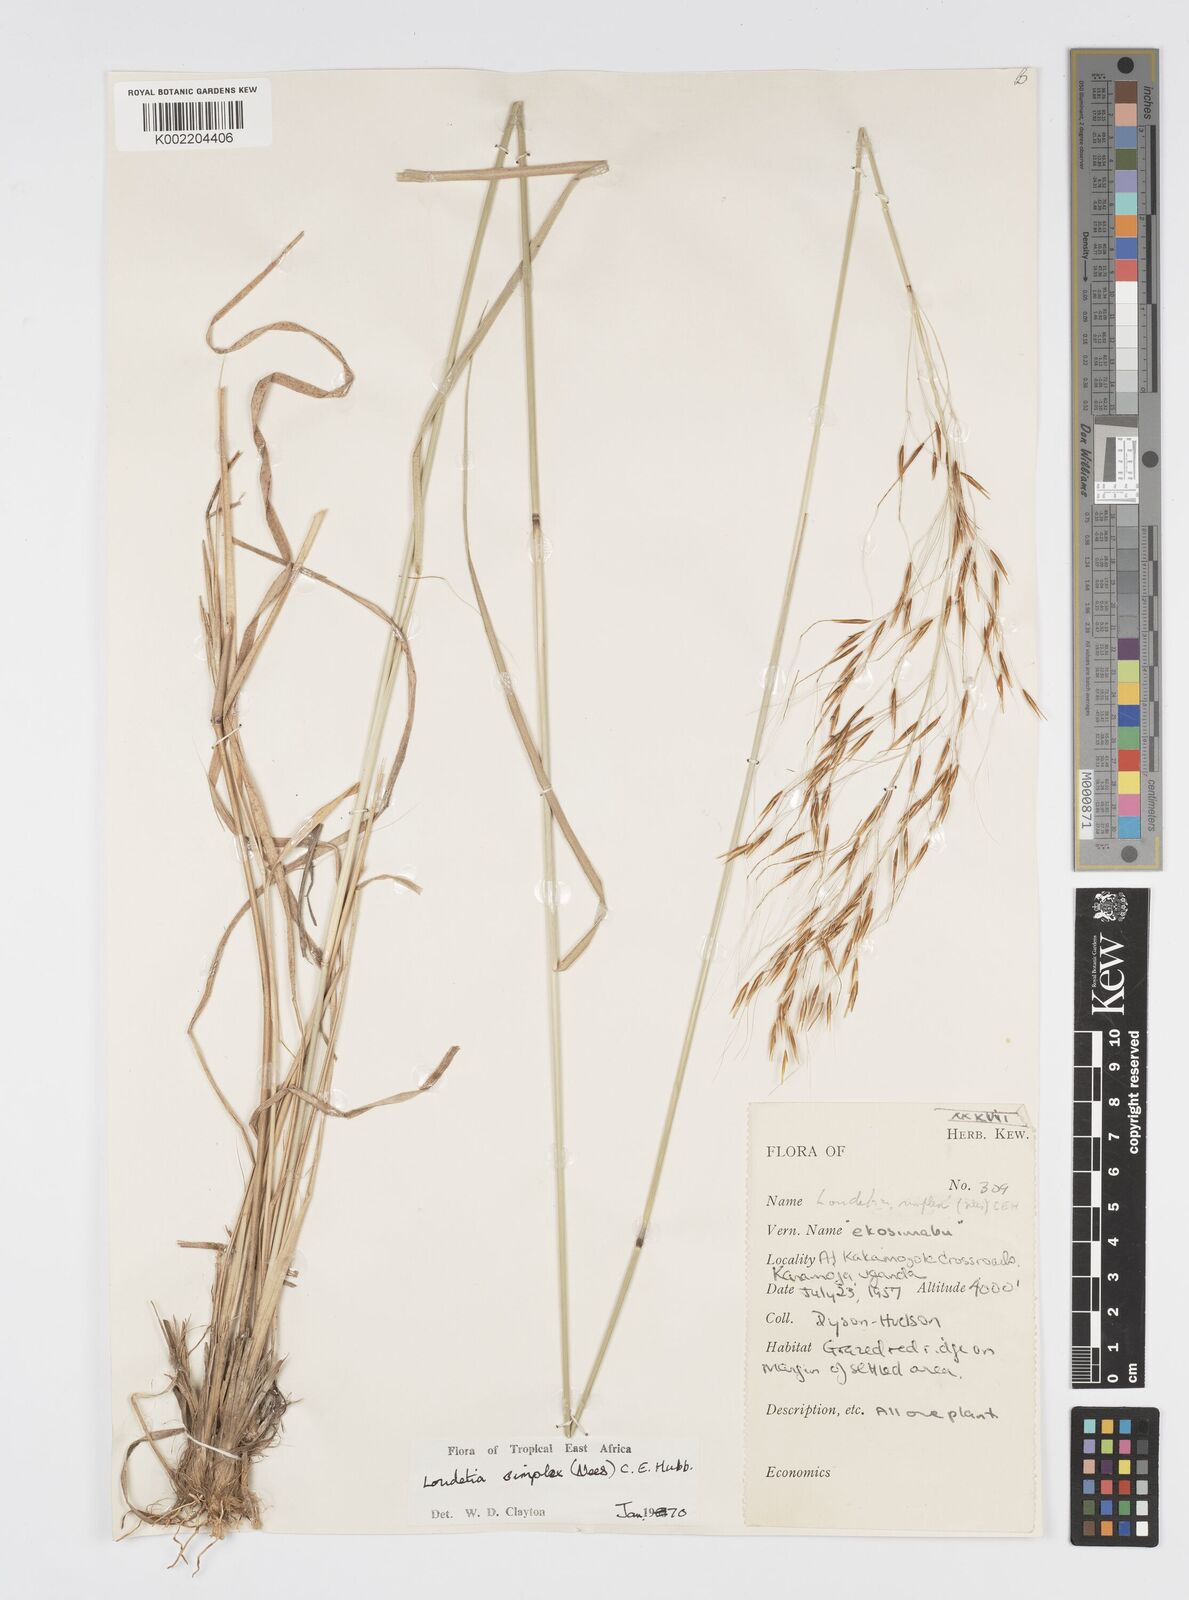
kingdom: Plantae
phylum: Tracheophyta
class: Liliopsida
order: Poales
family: Poaceae
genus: Loudetia
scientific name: Loudetia simplex
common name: Common russet grass
